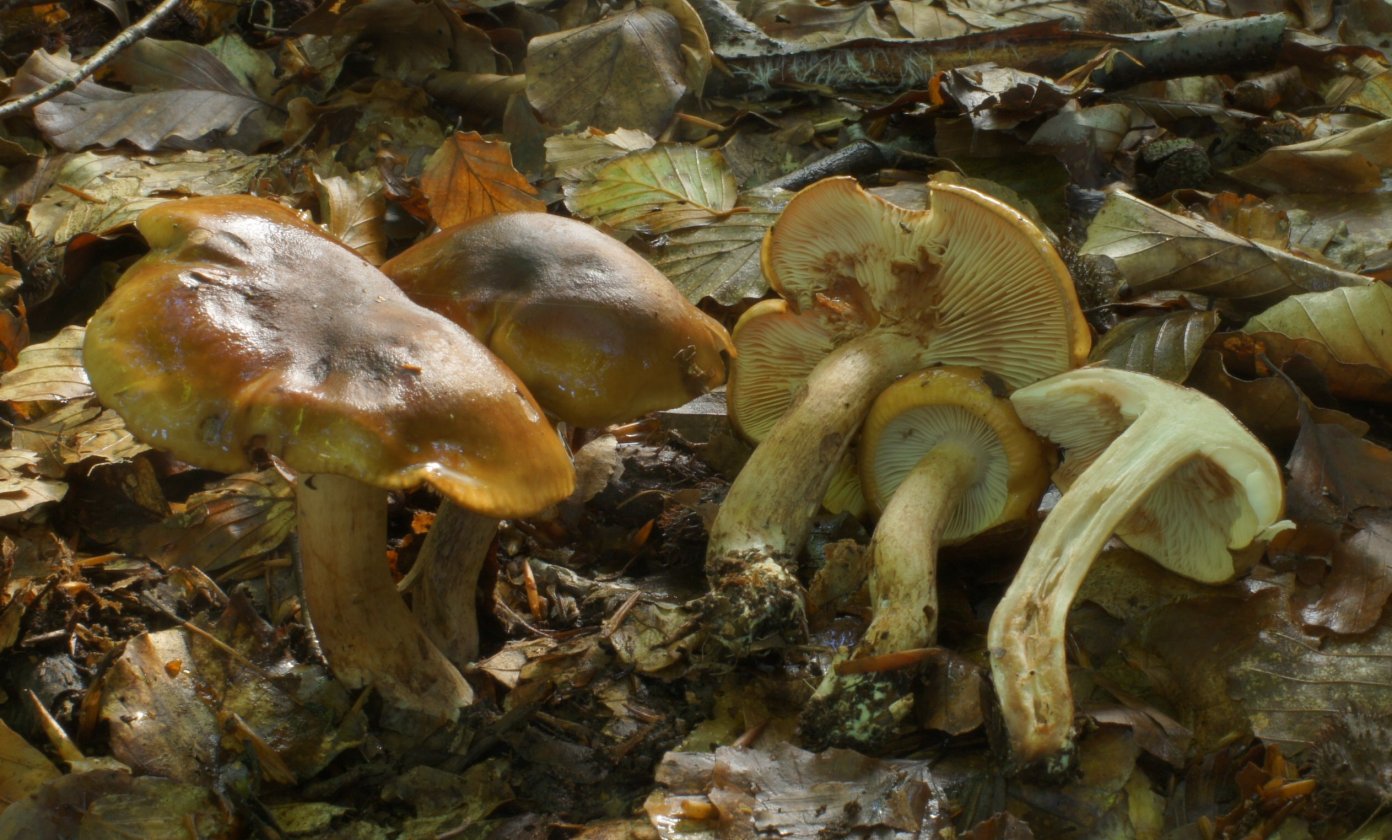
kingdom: Fungi
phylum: Basidiomycota
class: Agaricomycetes
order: Agaricales
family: Tricholomataceae
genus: Tricholoma
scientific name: Tricholoma ustale
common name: sveden ridderhat
